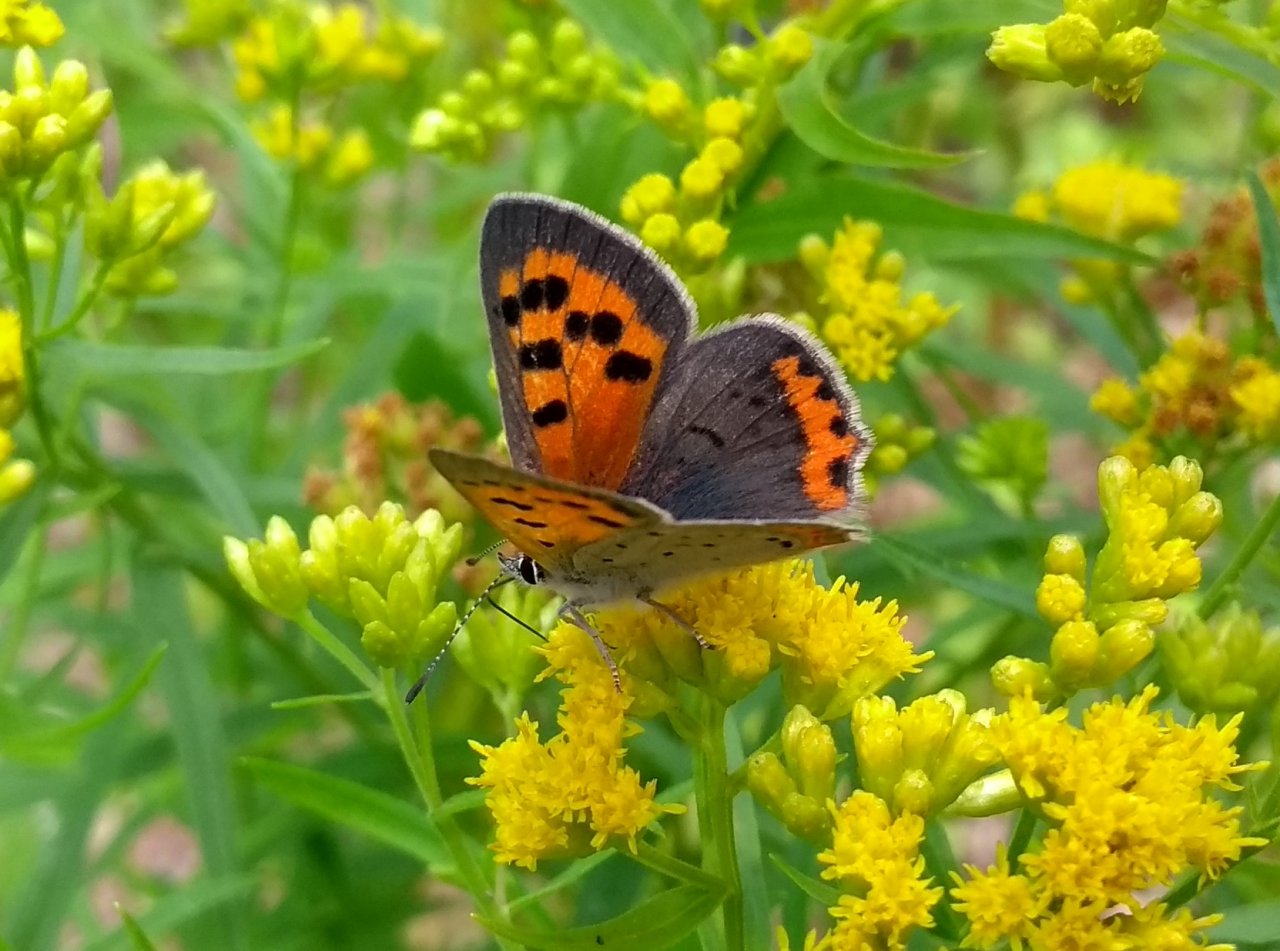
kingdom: Animalia
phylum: Arthropoda
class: Insecta
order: Lepidoptera
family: Lycaenidae
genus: Lycaena
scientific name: Lycaena phlaeas
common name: American Copper
